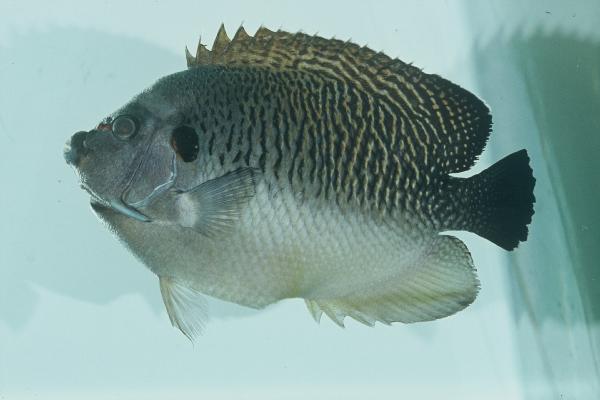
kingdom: Animalia
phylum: Chordata
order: Perciformes
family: Pomacanthidae
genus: Apolemichthys
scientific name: Apolemichthys kingi
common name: Tiger angelfish
